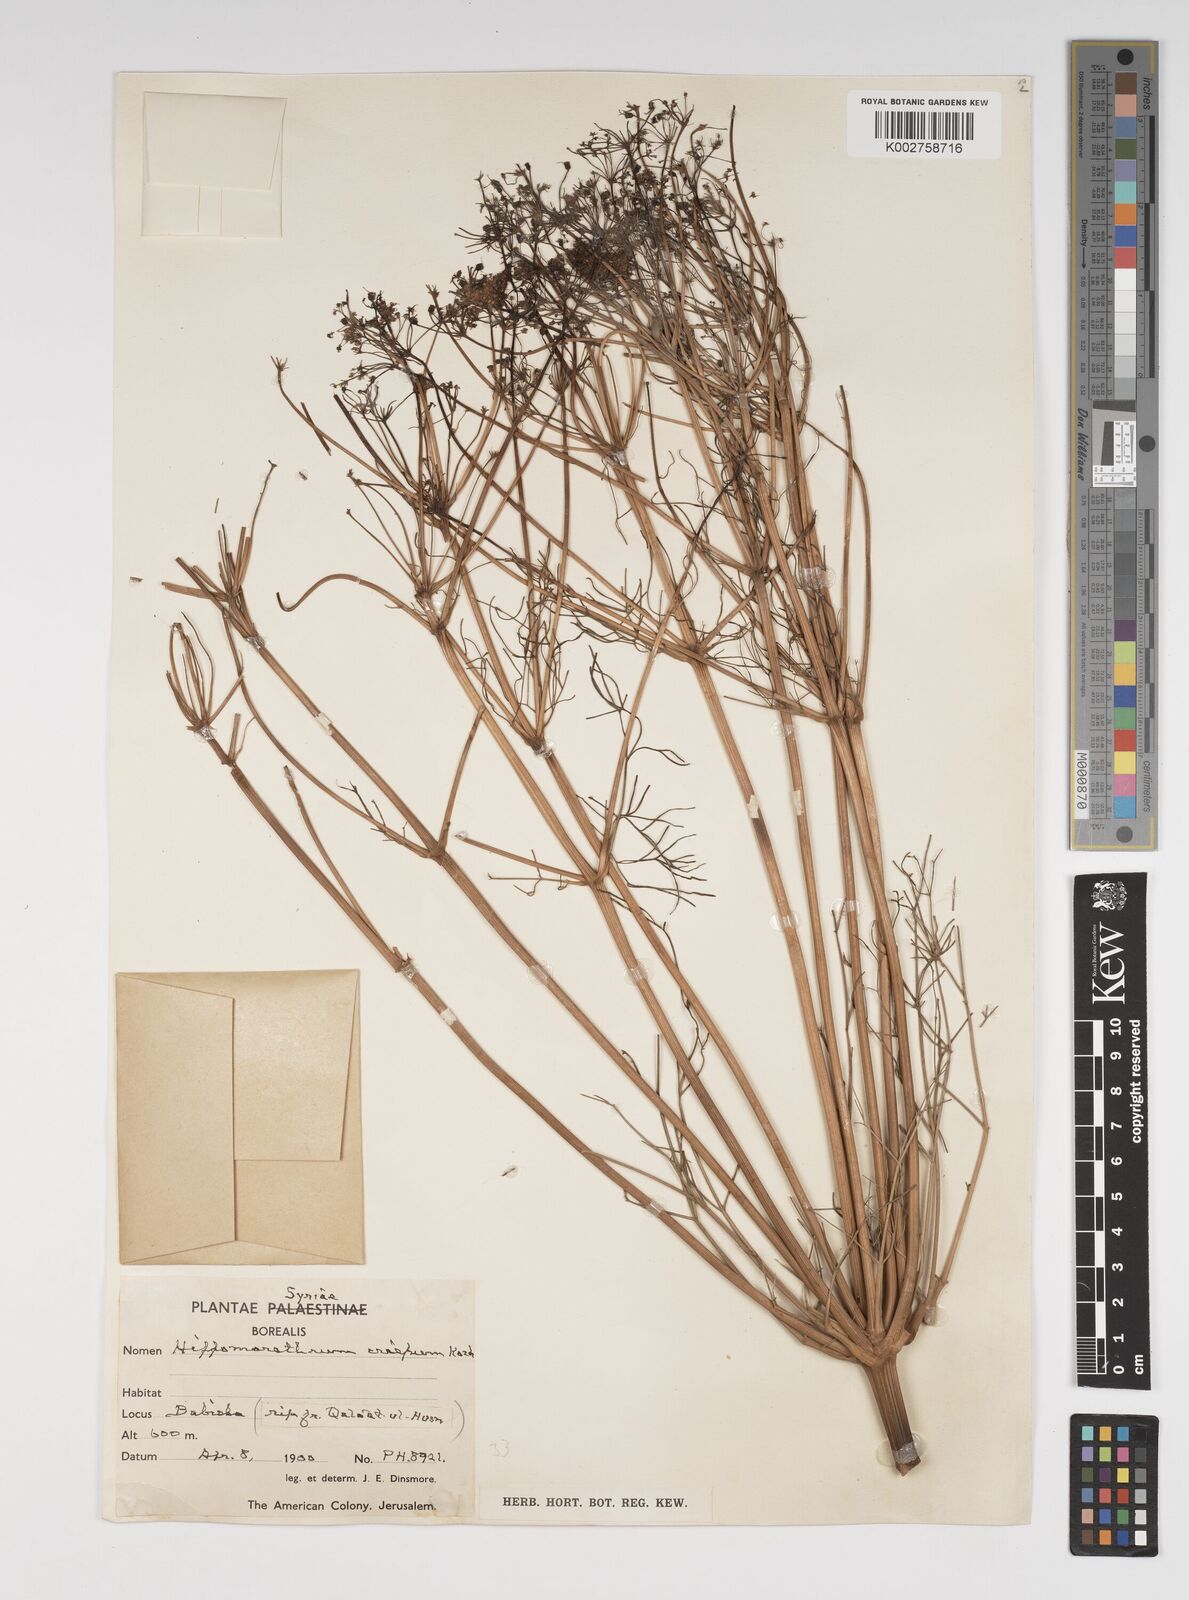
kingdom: Plantae
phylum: Tracheophyta
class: Magnoliopsida
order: Apiales
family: Apiaceae
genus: Cachrys
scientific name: Cachrys
